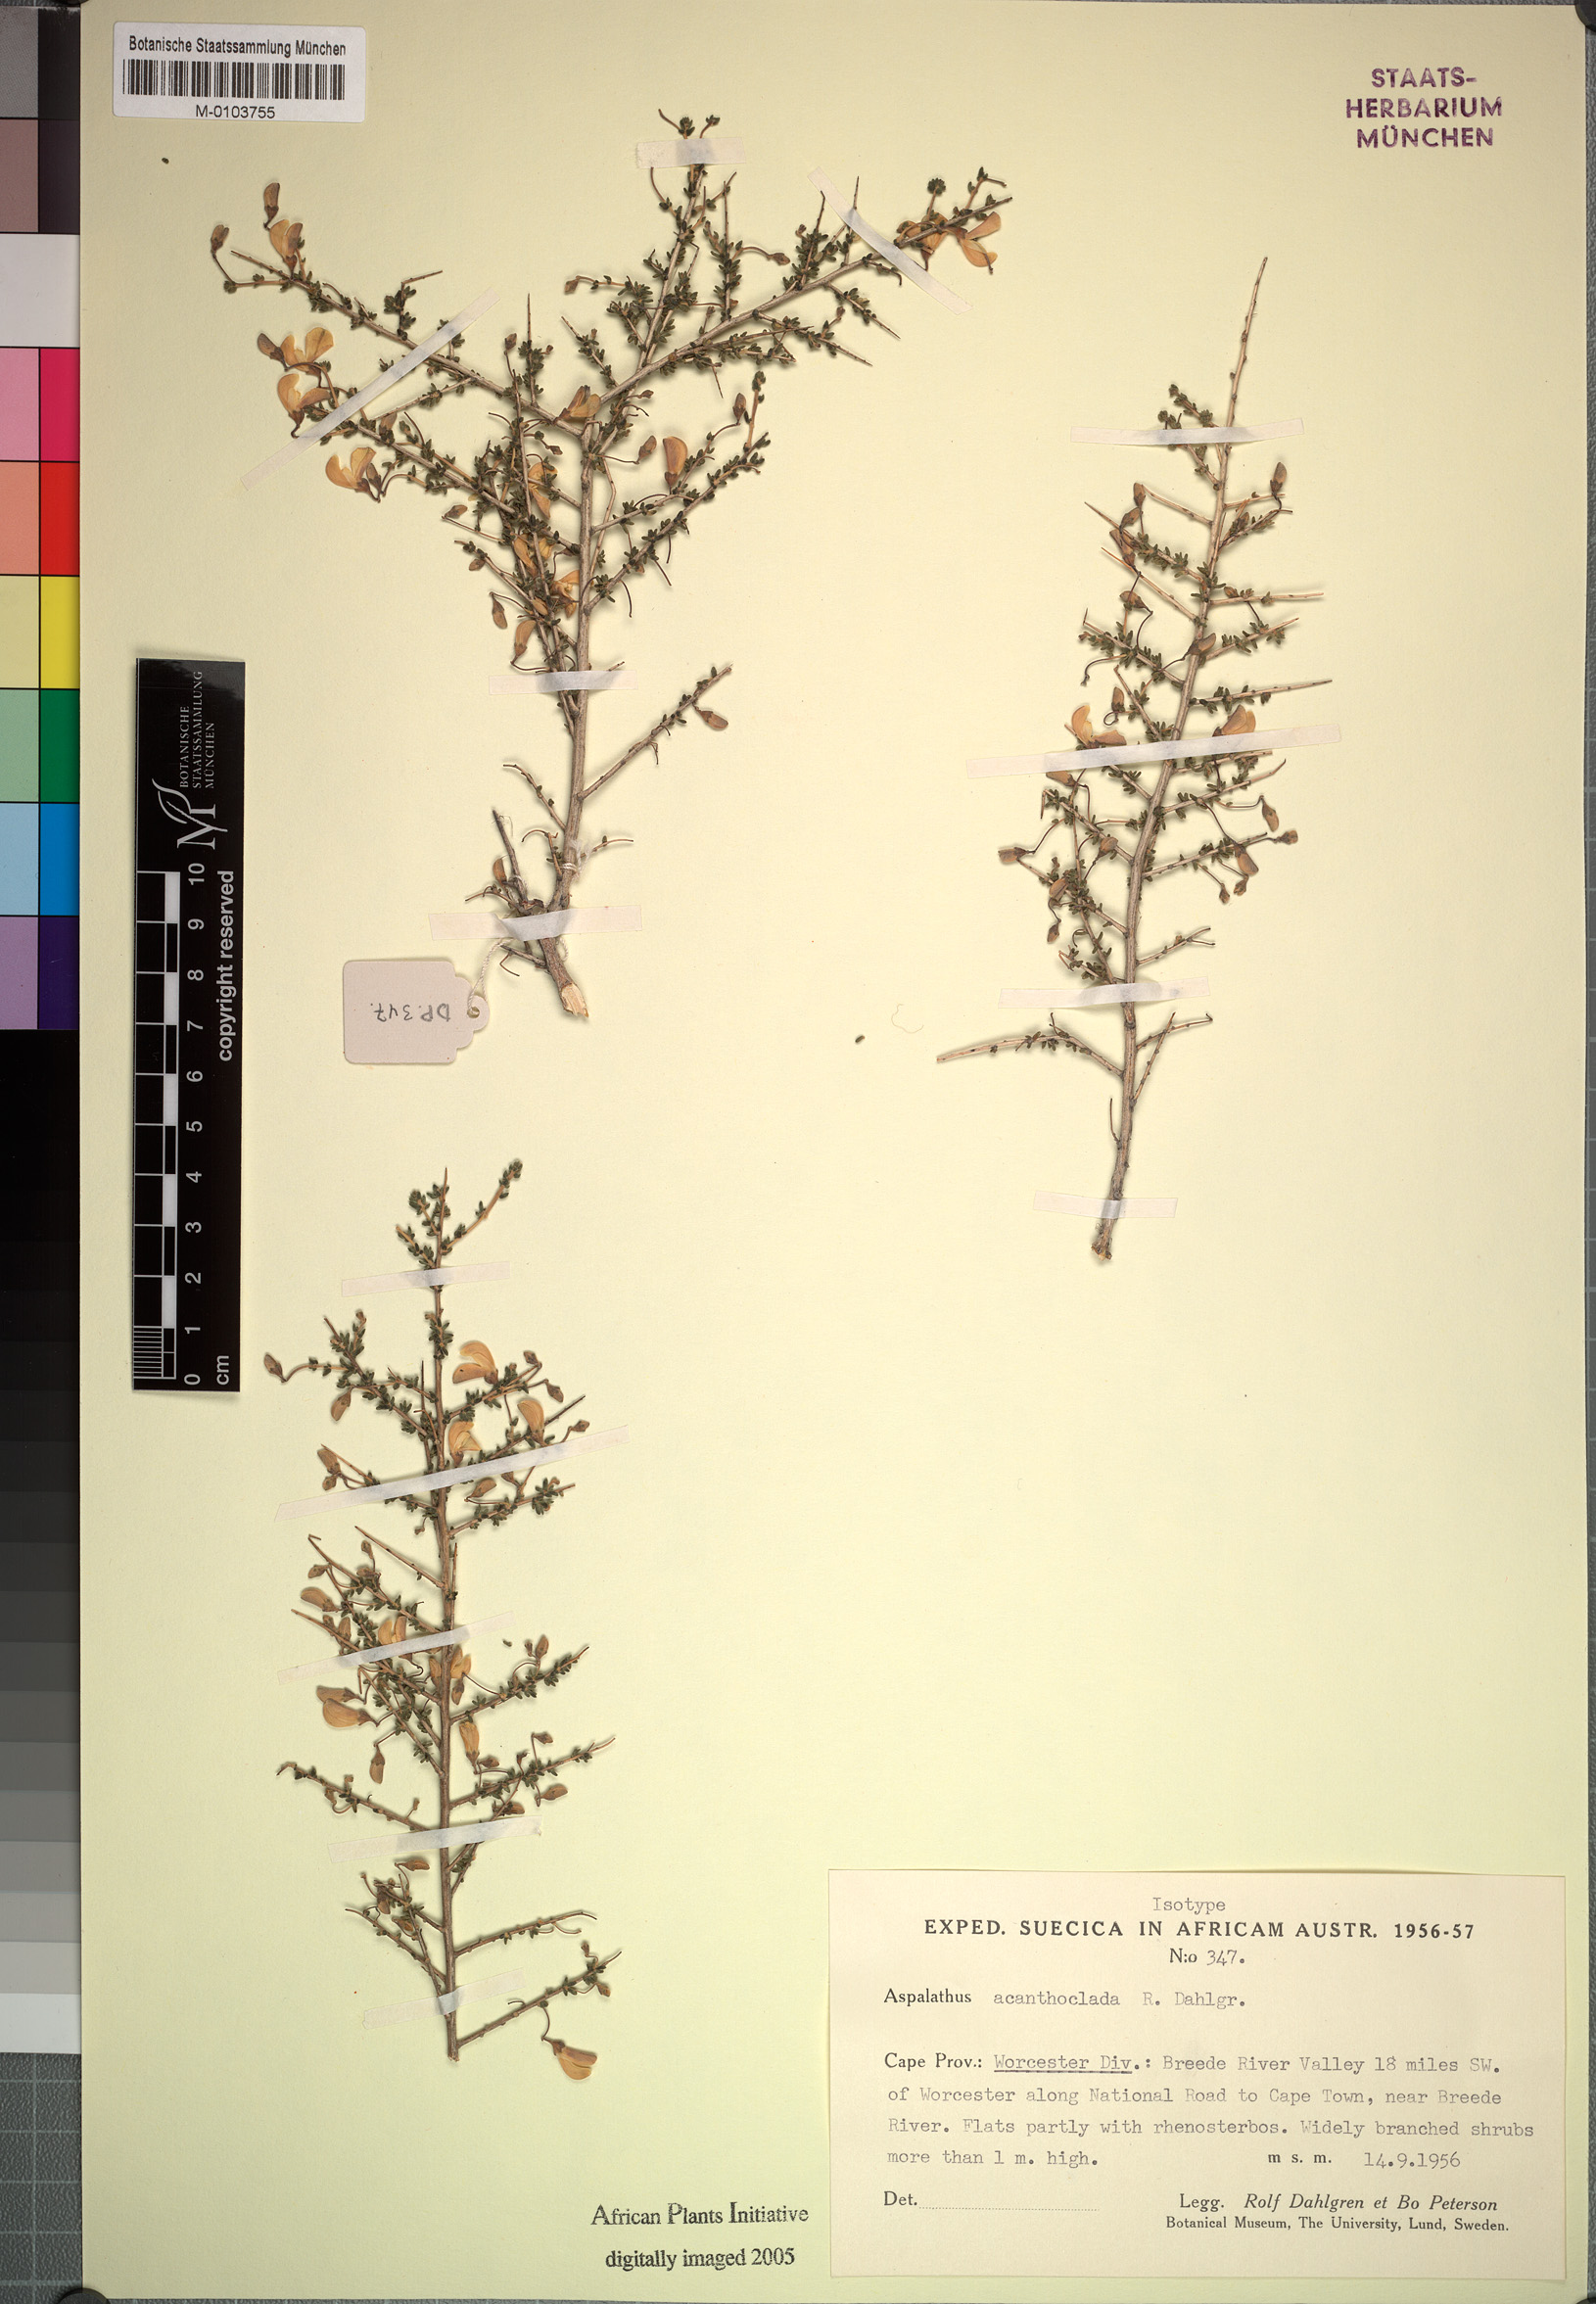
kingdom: Plantae
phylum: Tracheophyta
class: Magnoliopsida
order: Fabales
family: Fabaceae
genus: Aspalathus
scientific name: Aspalathus acanthoclada
